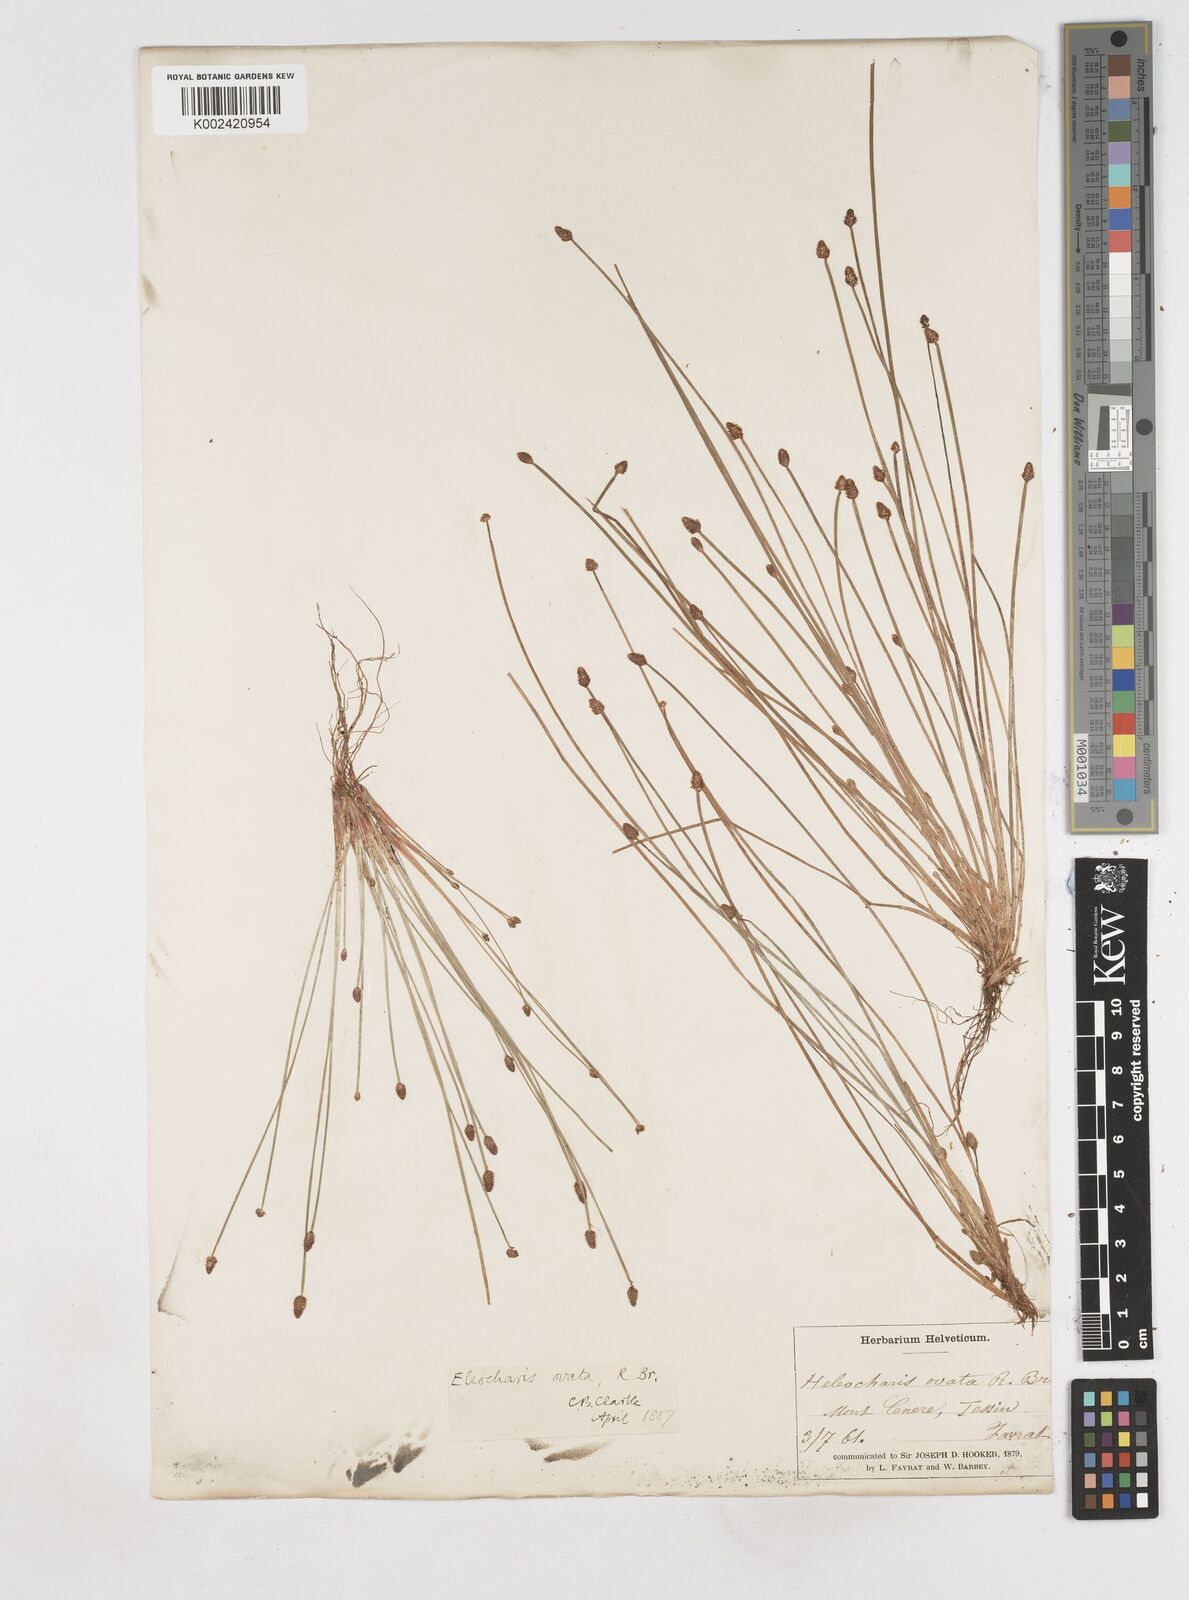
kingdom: Plantae
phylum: Tracheophyta
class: Liliopsida
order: Poales
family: Cyperaceae
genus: Eleocharis
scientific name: Eleocharis ovata
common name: Oval spike-rush
